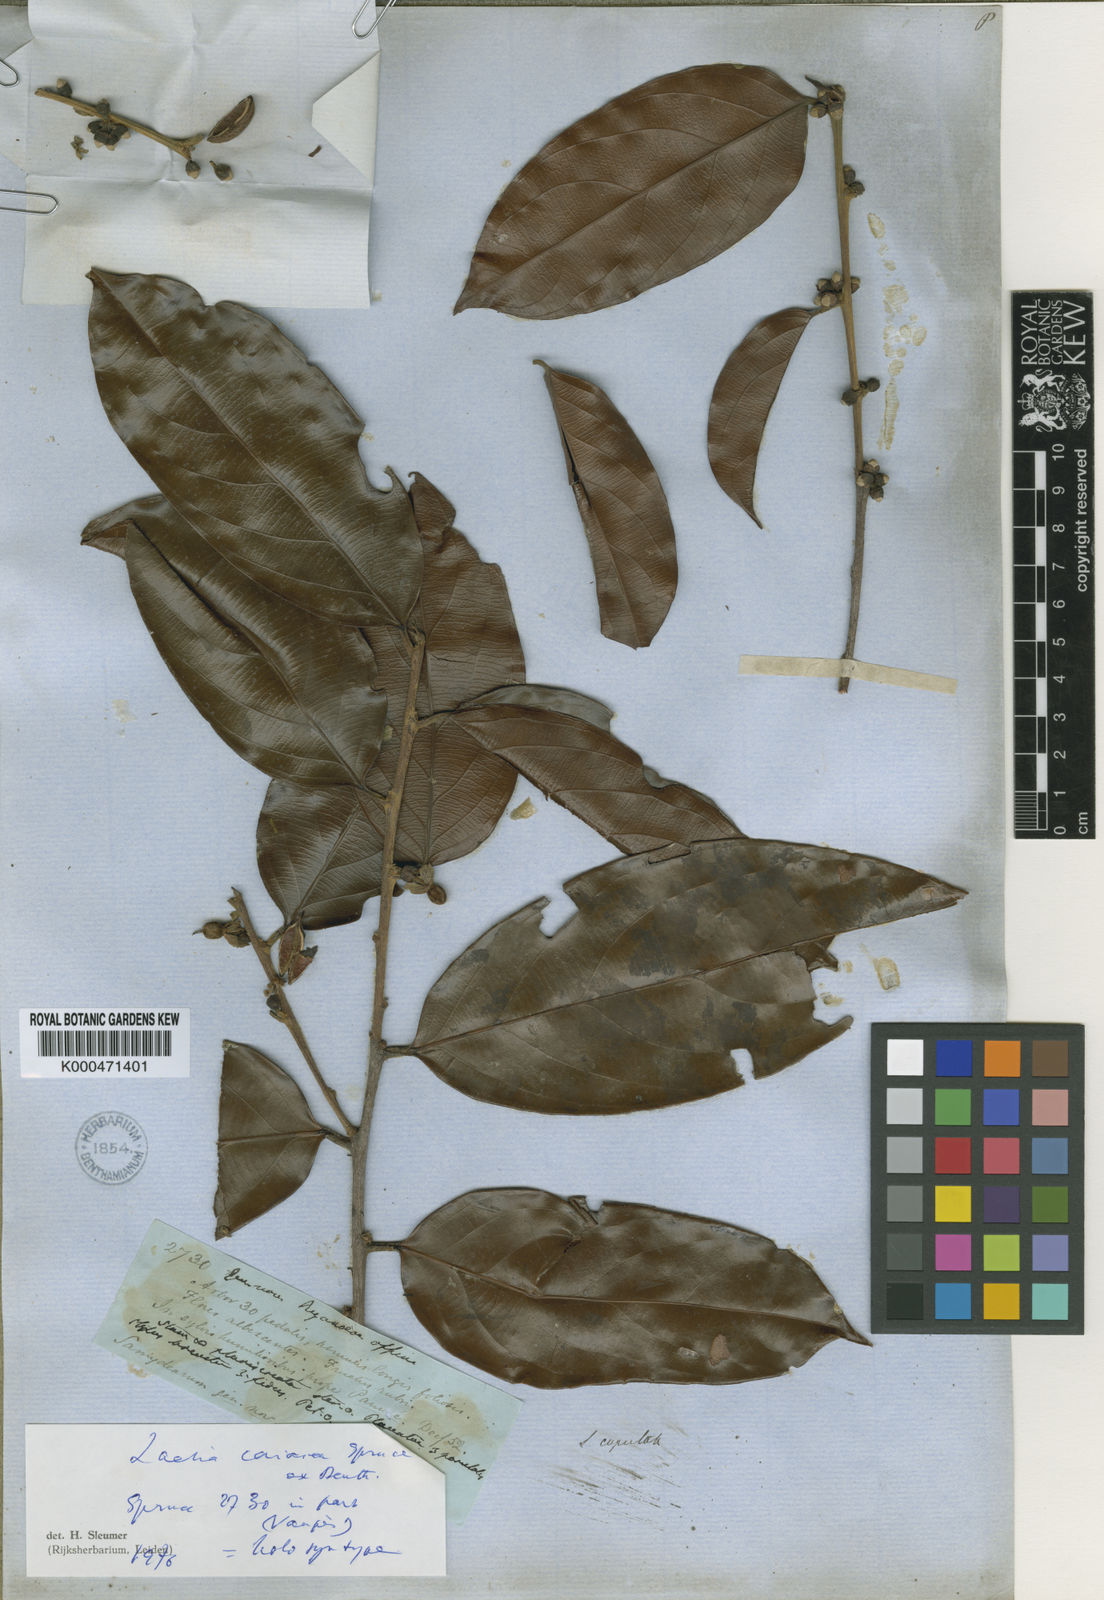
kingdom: Plantae
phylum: Tracheophyta
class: Magnoliopsida
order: Malpighiales
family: Salicaceae
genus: Irenodendron
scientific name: Irenodendron coriaceum
